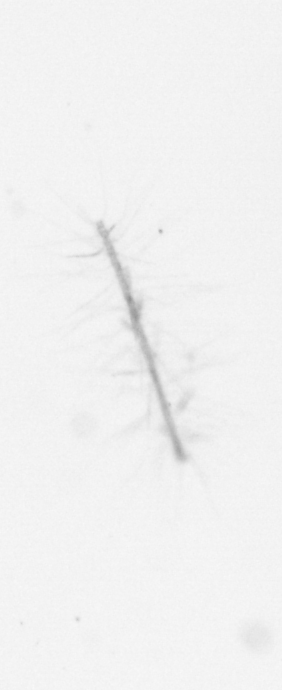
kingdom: Chromista
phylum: Ochrophyta
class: Bacillariophyceae
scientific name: Bacillariophyceae
